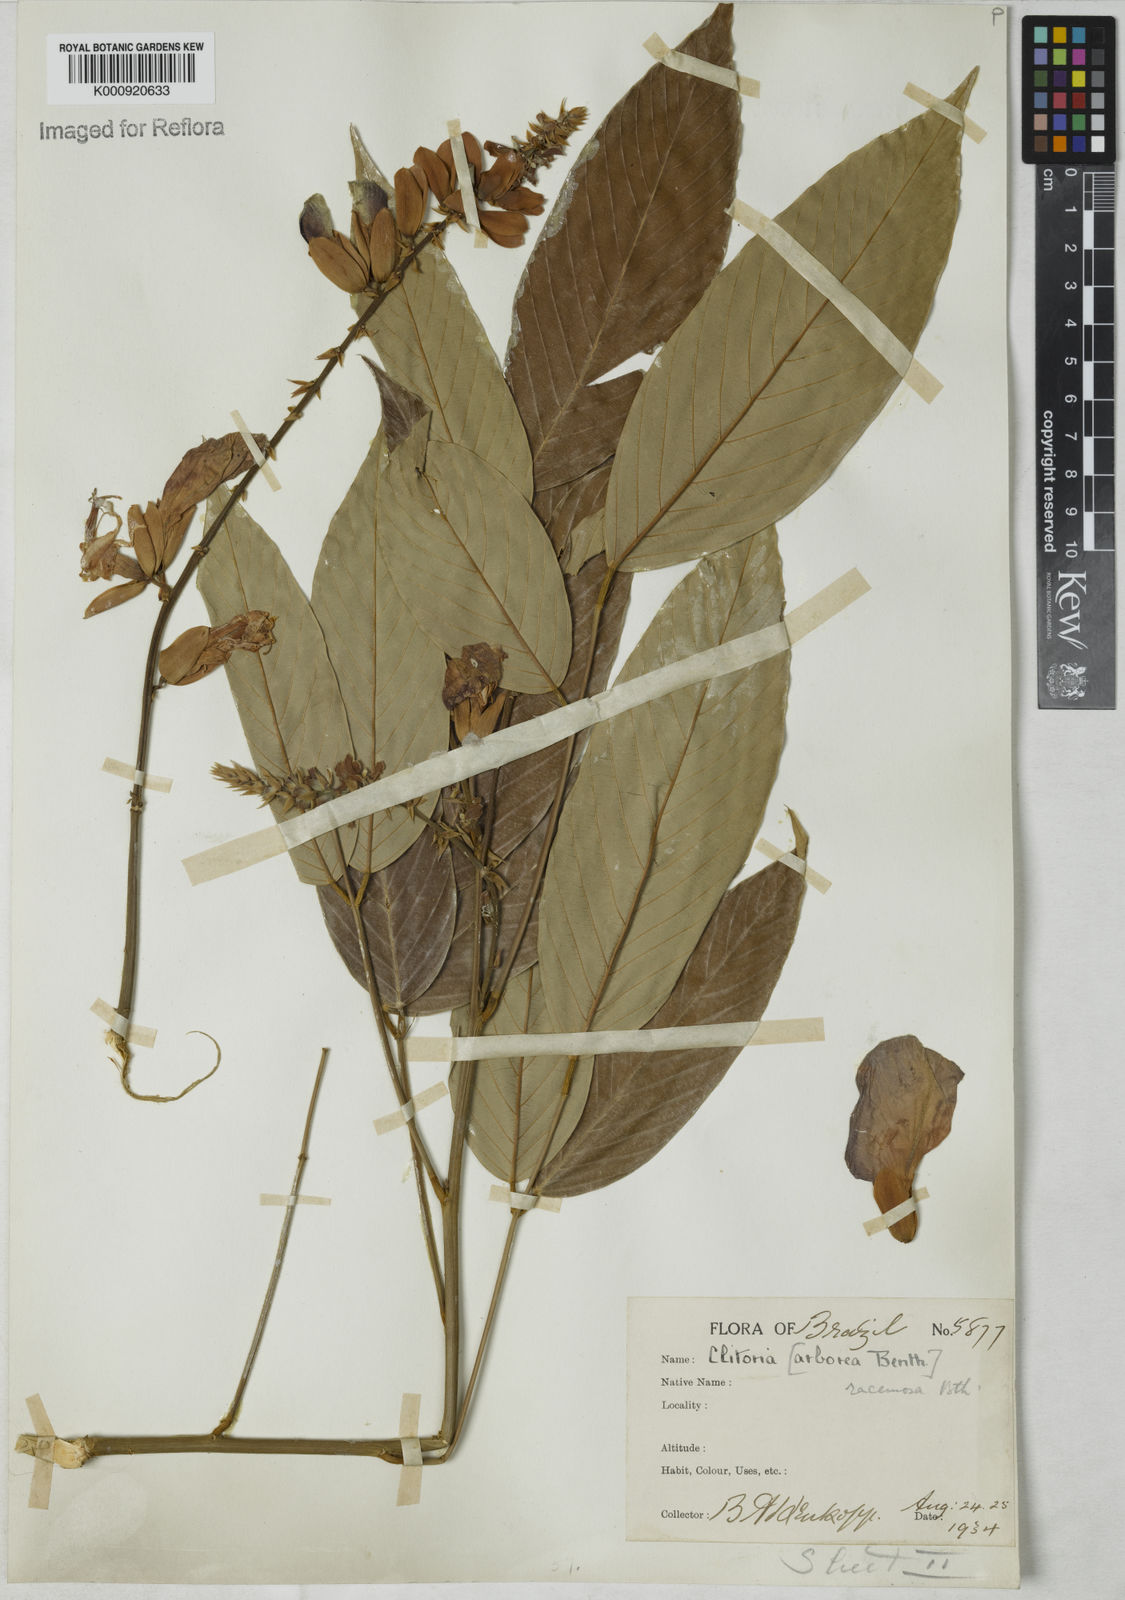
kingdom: Plantae
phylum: Tracheophyta
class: Magnoliopsida
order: Fabales
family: Fabaceae
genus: Clitoria
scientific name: Clitoria fairchildiana
